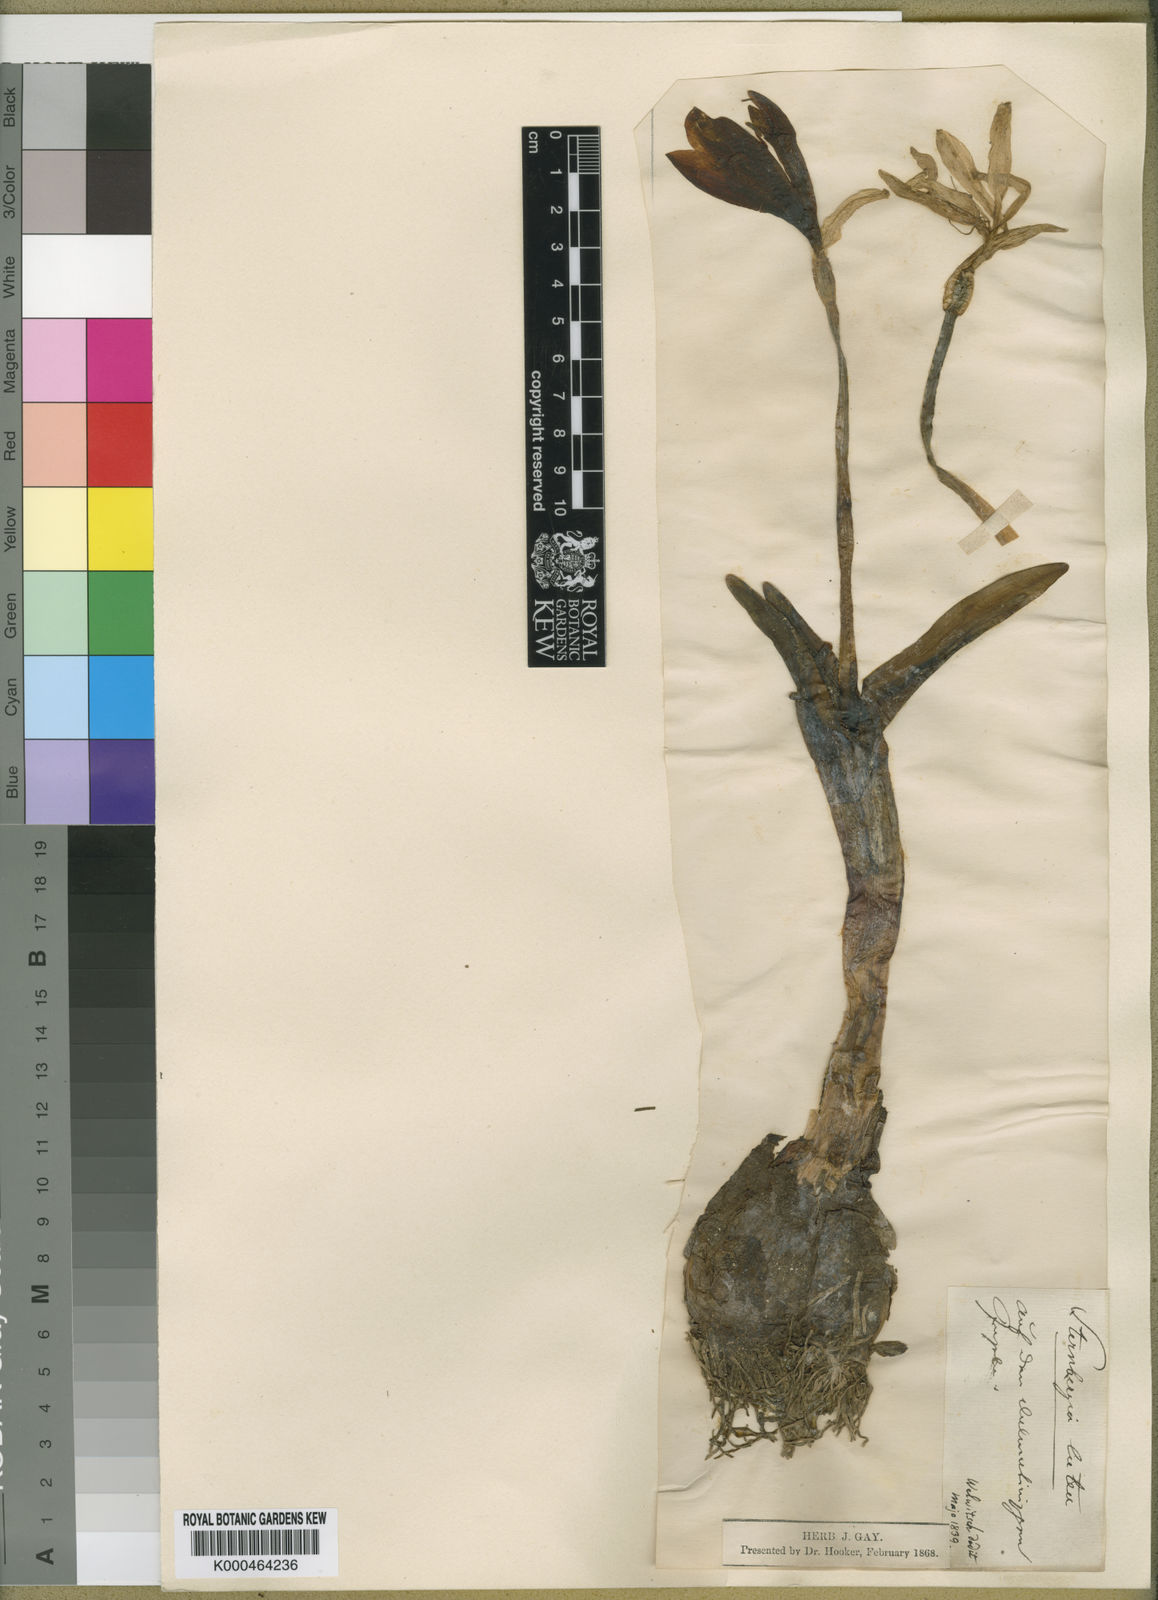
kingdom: Plantae
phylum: Tracheophyta
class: Liliopsida
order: Asparagales
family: Amaryllidaceae
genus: Sternbergia
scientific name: Sternbergia
